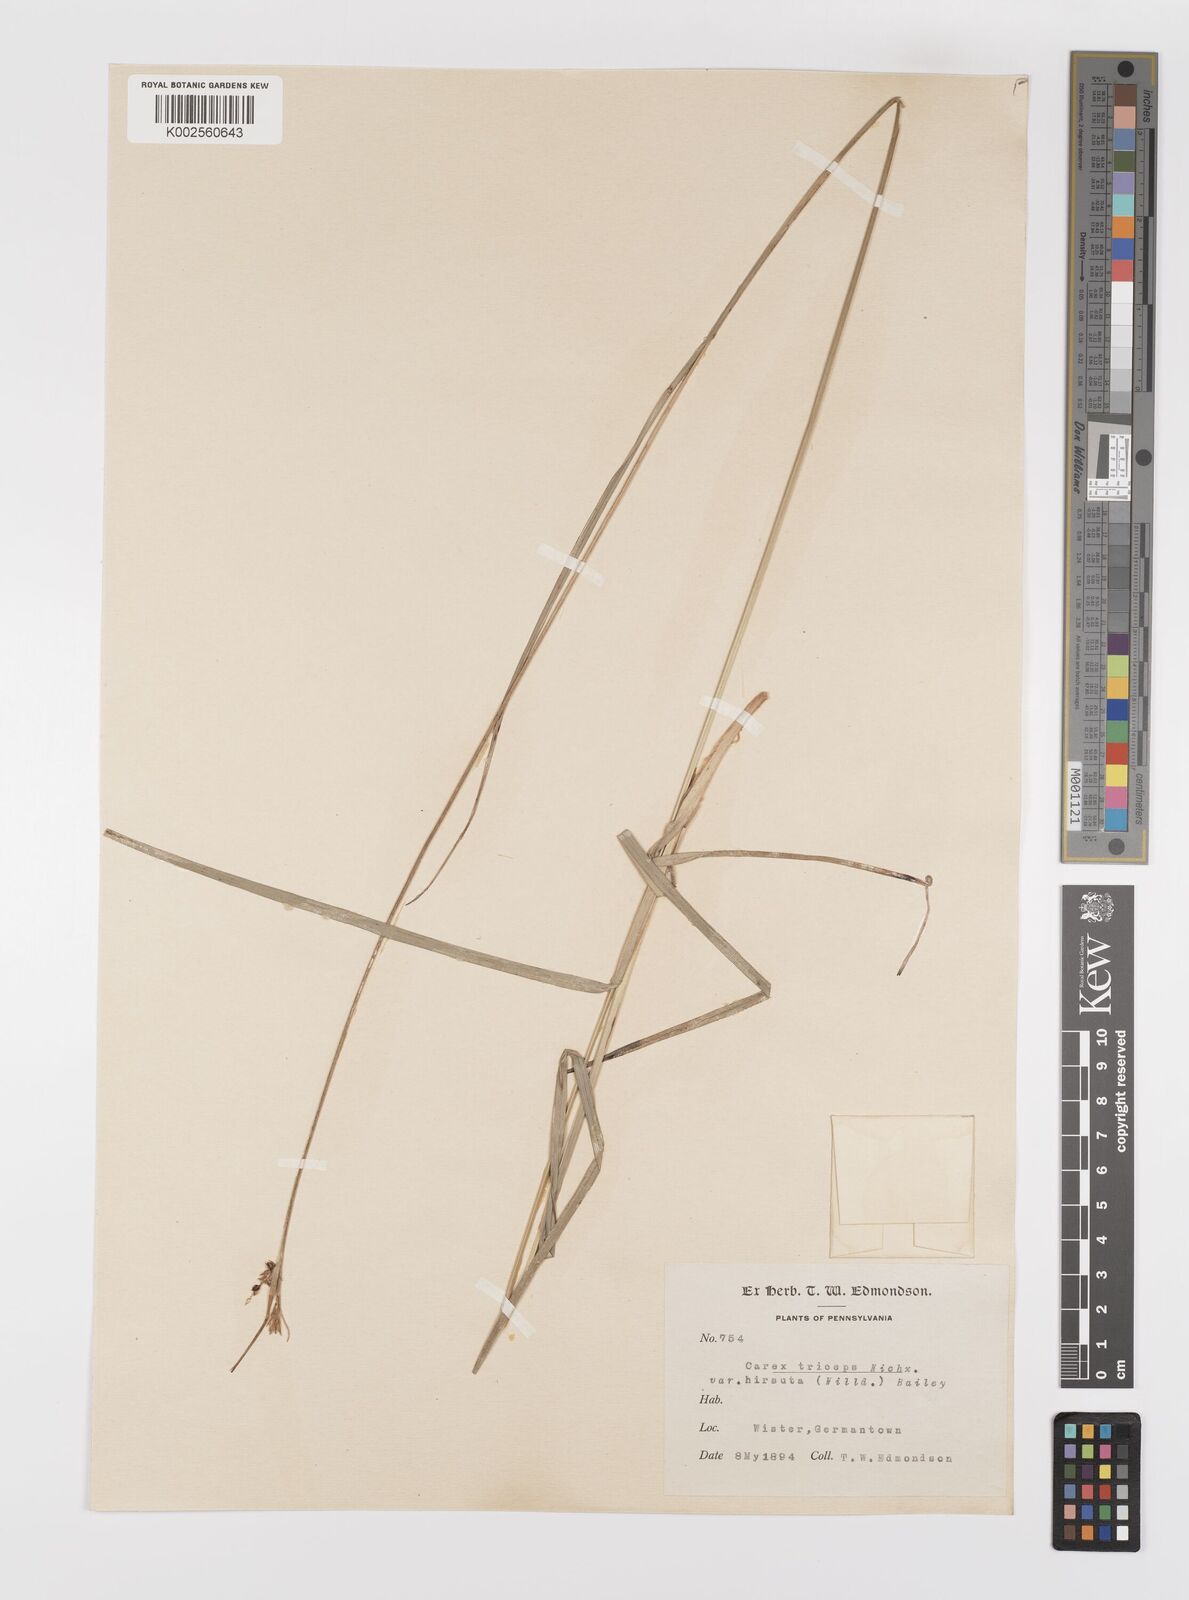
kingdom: Plantae
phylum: Tracheophyta
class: Liliopsida
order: Poales
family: Cyperaceae
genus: Carex
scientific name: Carex hirsutella
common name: Fuzzy wuzzy sedge
